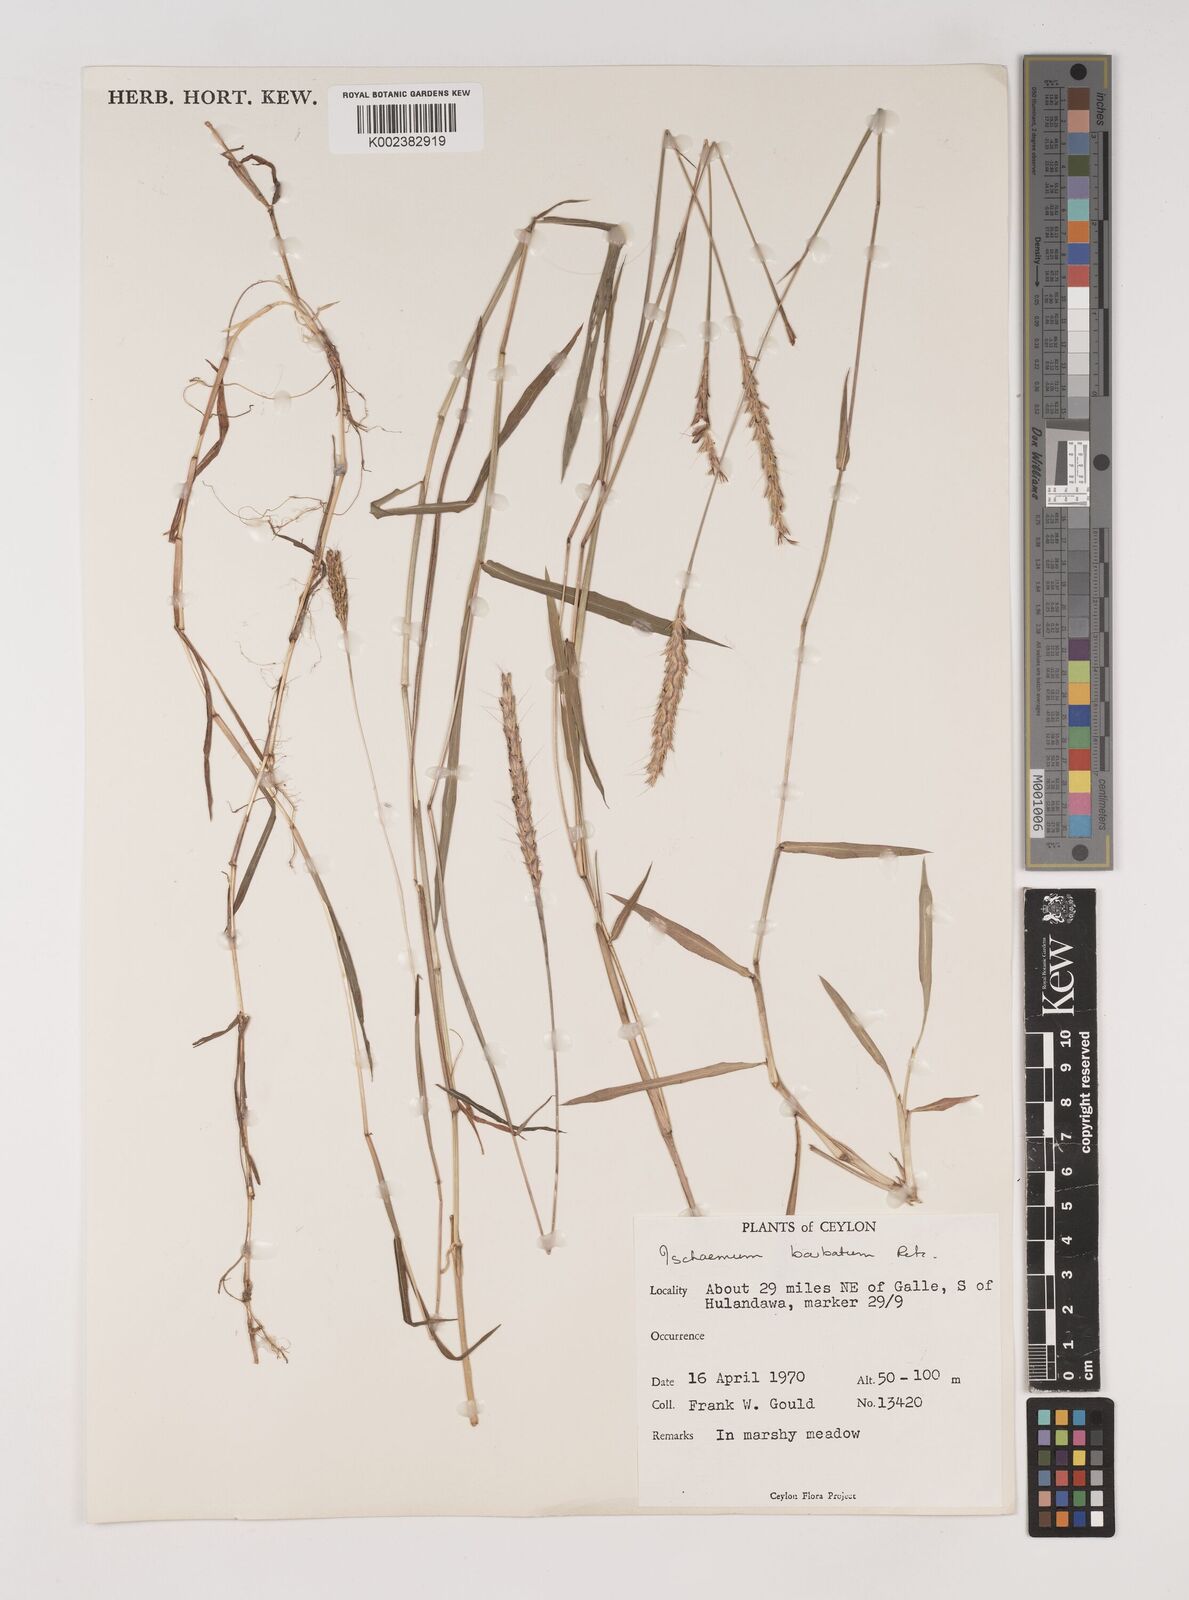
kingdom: Plantae
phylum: Tracheophyta
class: Liliopsida
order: Poales
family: Poaceae
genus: Ischaemum
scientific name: Ischaemum
